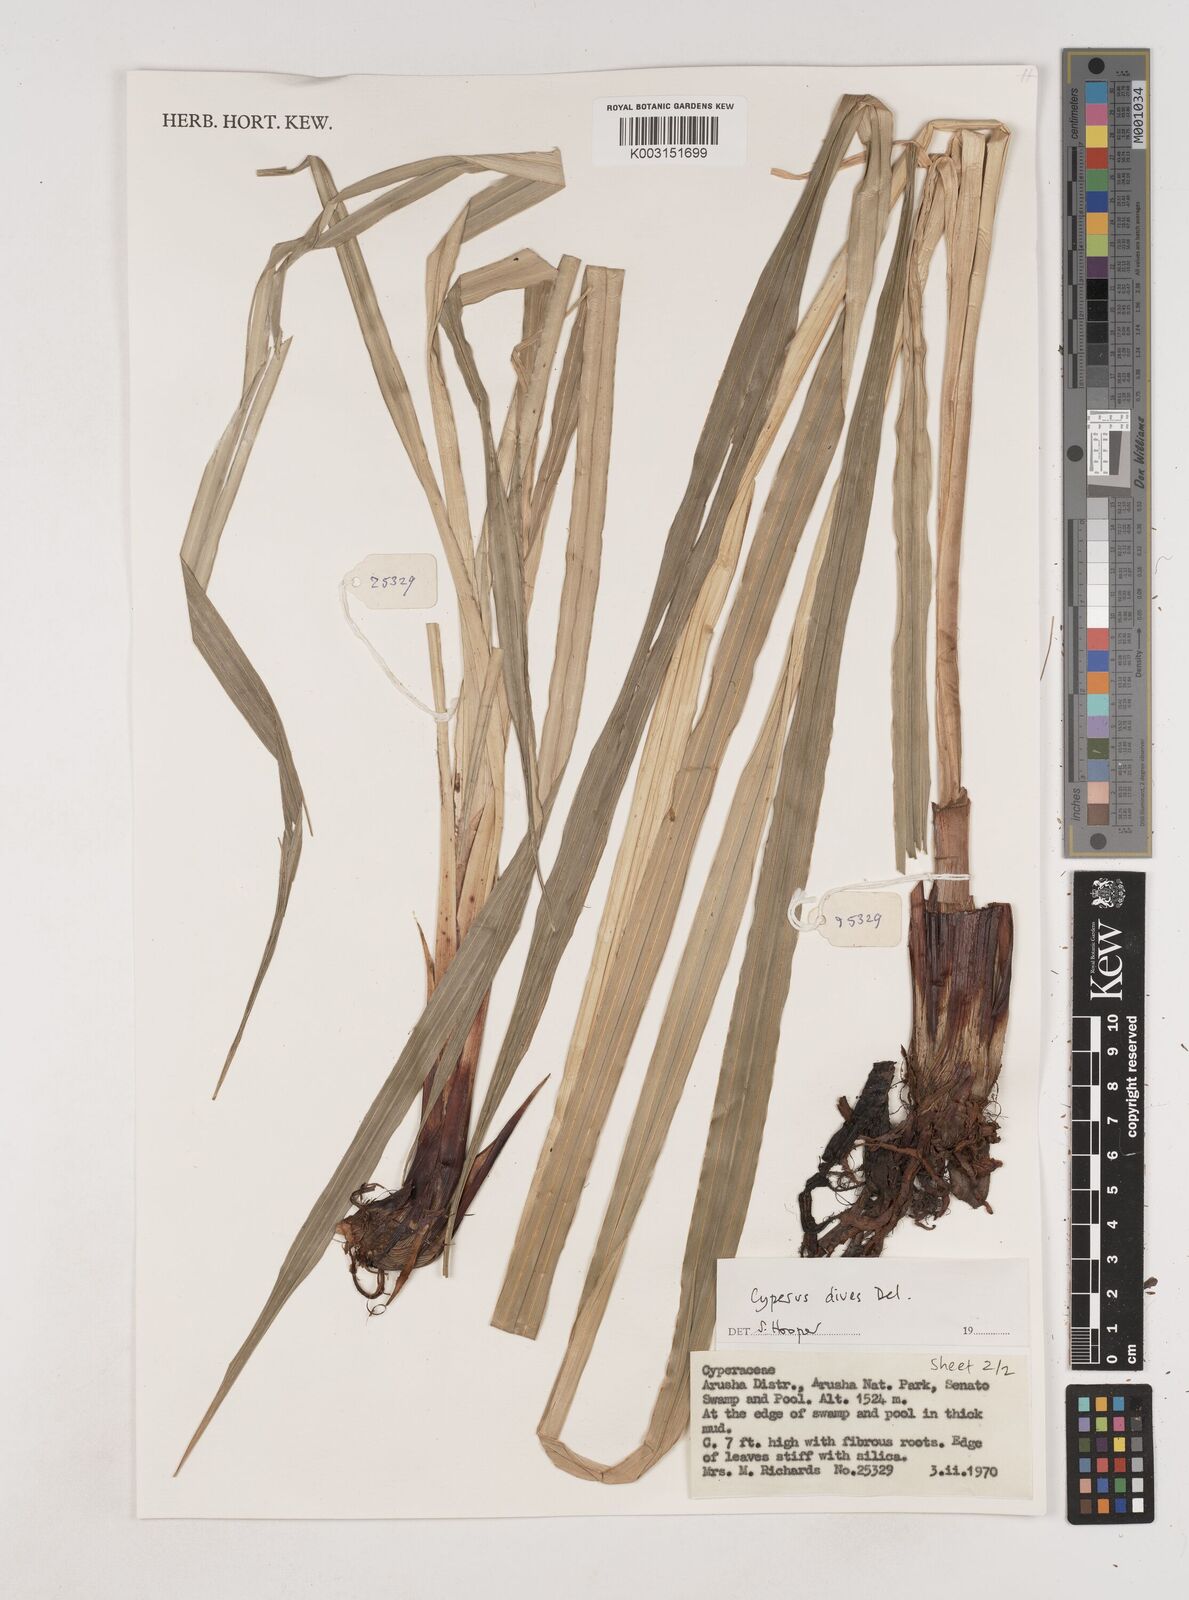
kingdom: Plantae
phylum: Tracheophyta
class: Liliopsida
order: Poales
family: Cyperaceae
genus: Cyperus
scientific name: Cyperus exaltatus
